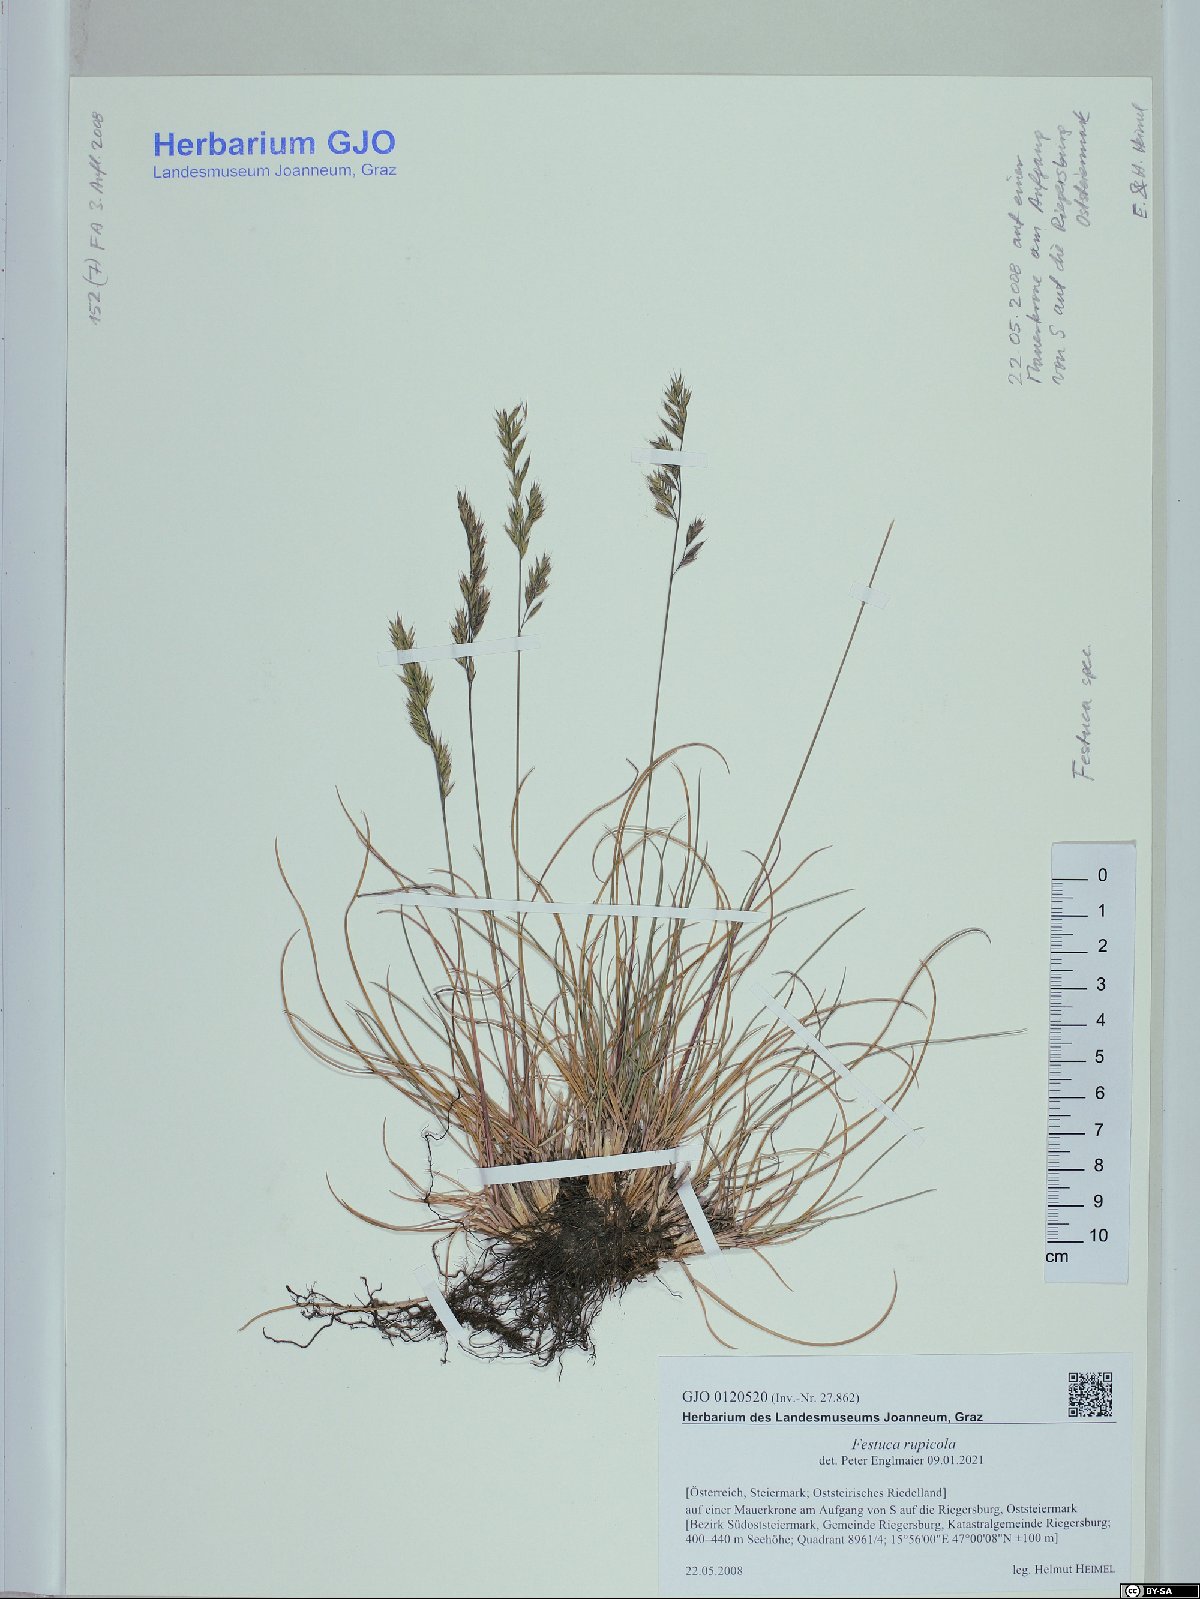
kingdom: Plantae
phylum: Tracheophyta
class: Liliopsida
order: Poales
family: Poaceae
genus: Festuca
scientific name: Festuca rupicola
